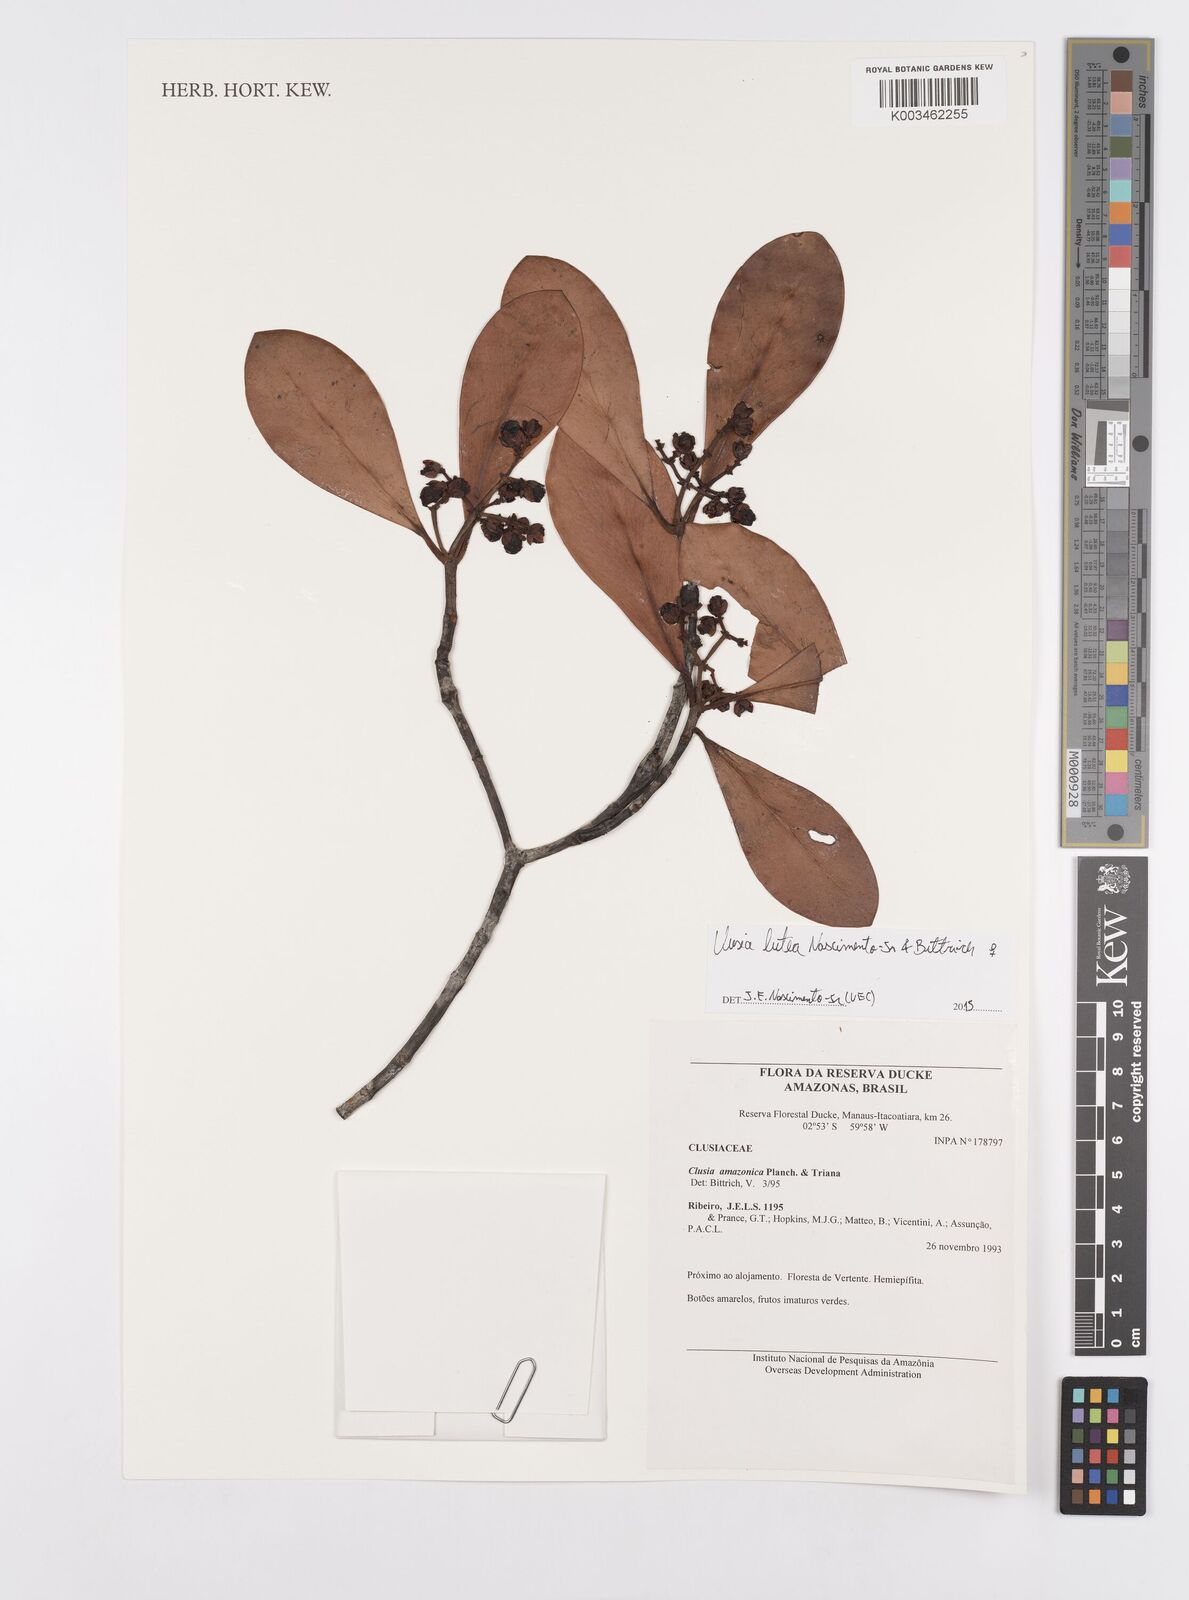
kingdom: Plantae
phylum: Tracheophyta
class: Magnoliopsida
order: Malpighiales
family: Clusiaceae
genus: Clusia
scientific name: Clusia rubrifructa
